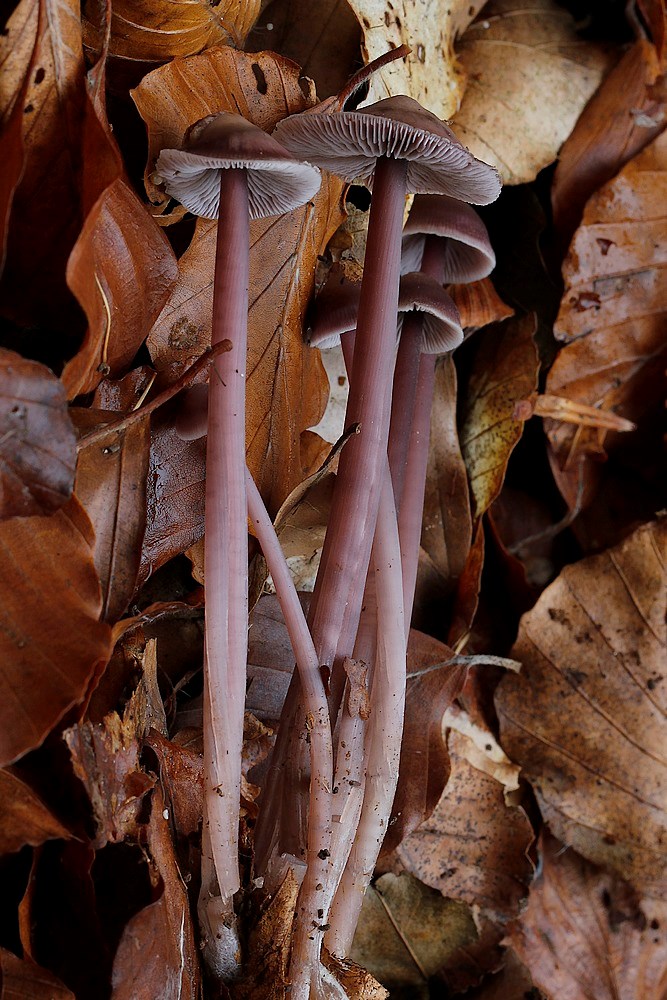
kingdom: Fungi
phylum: Basidiomycota
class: Agaricomycetes
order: Agaricales
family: Mycenaceae
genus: Prunulus
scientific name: Prunulus diosmus
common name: tobaks-huesvamp
